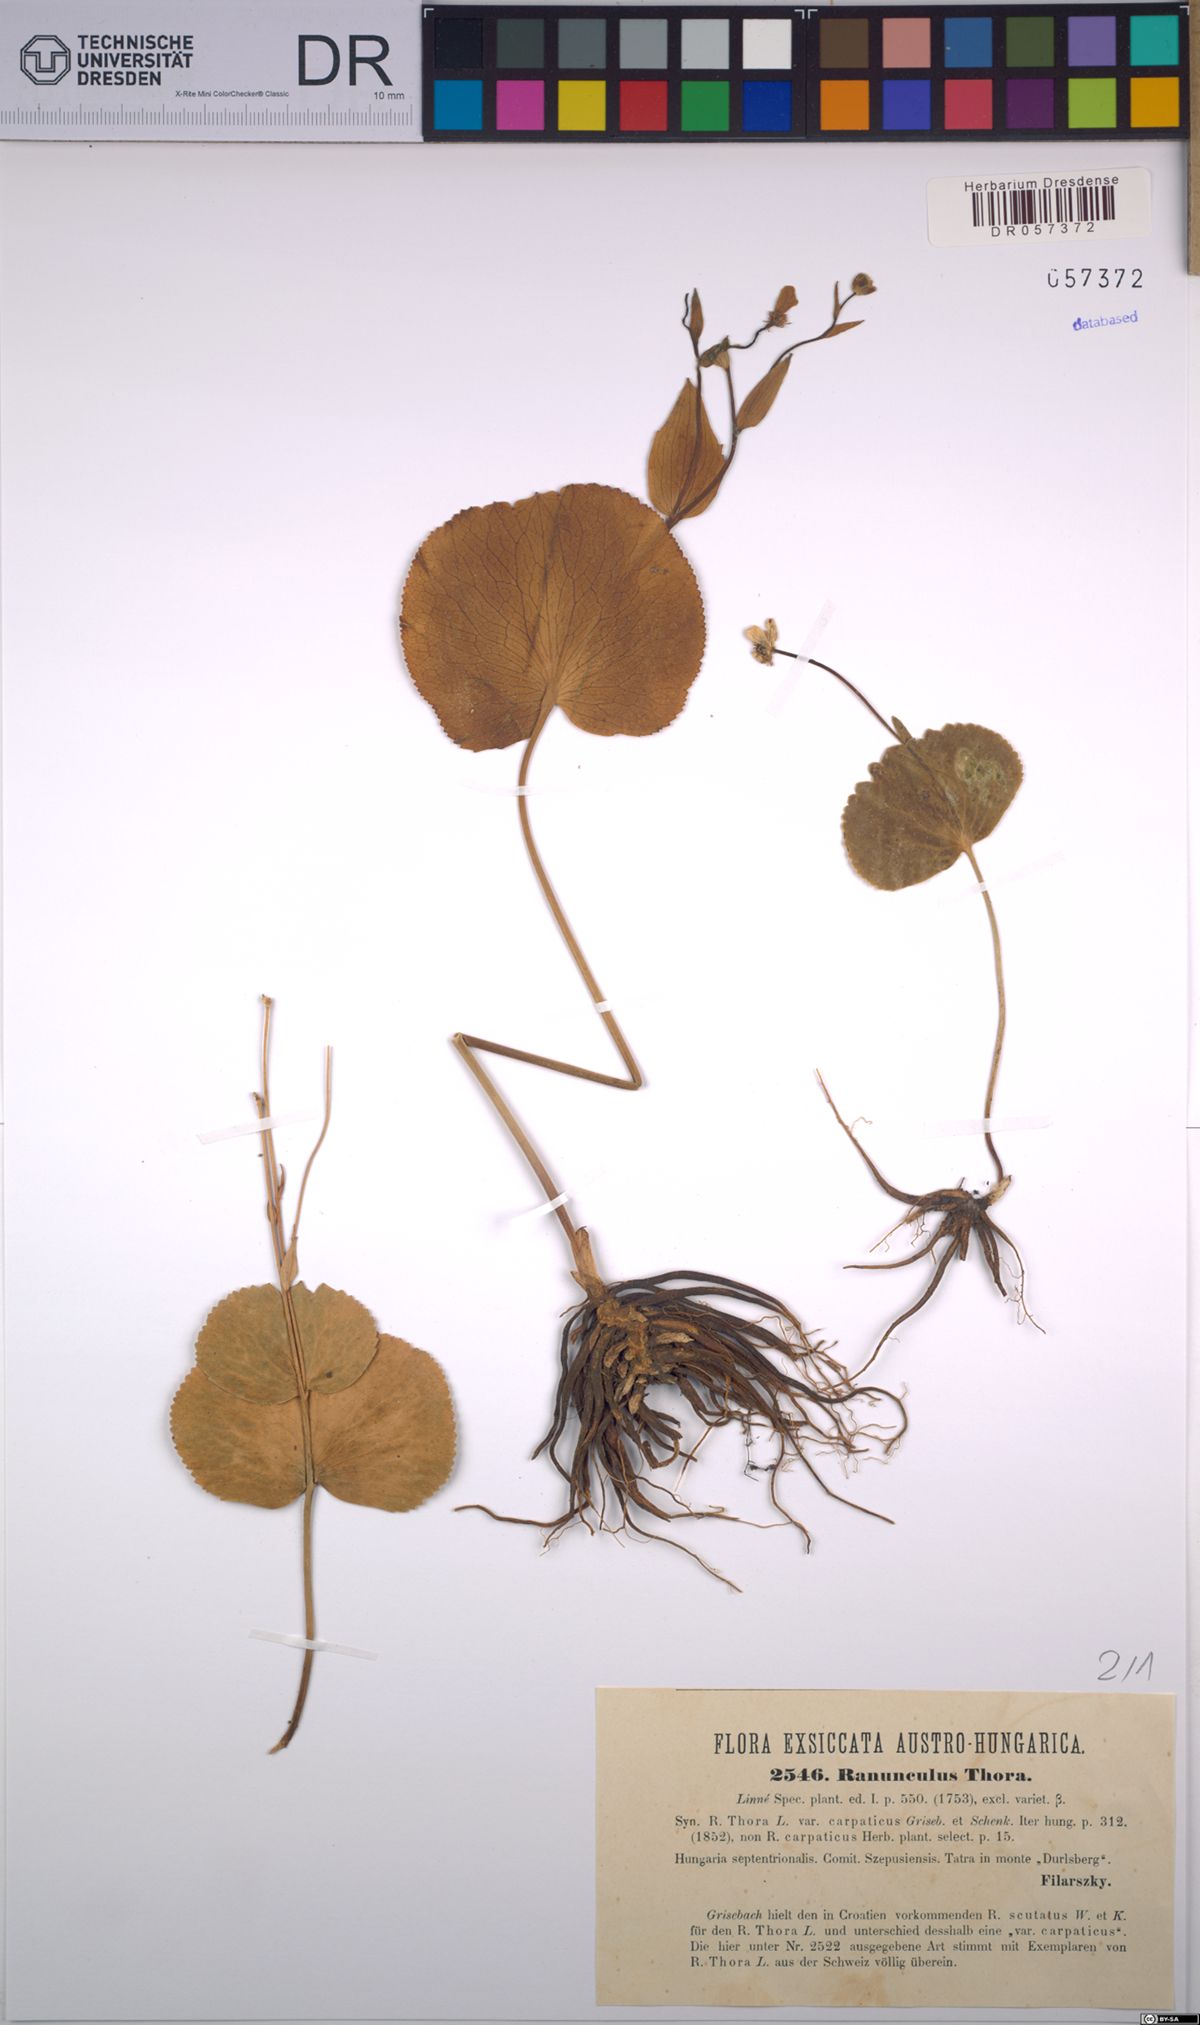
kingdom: Plantae
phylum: Tracheophyta
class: Magnoliopsida
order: Ranunculales
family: Ranunculaceae
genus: Ranunculus
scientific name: Ranunculus thora
